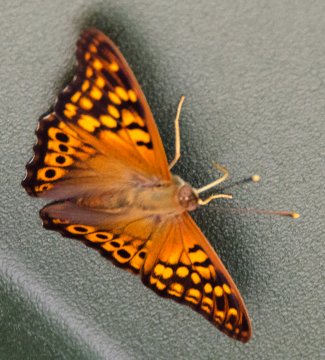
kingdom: Animalia
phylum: Arthropoda
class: Insecta
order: Lepidoptera
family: Nymphalidae
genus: Asterocampa
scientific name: Asterocampa clyton
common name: Tawny Emperor
